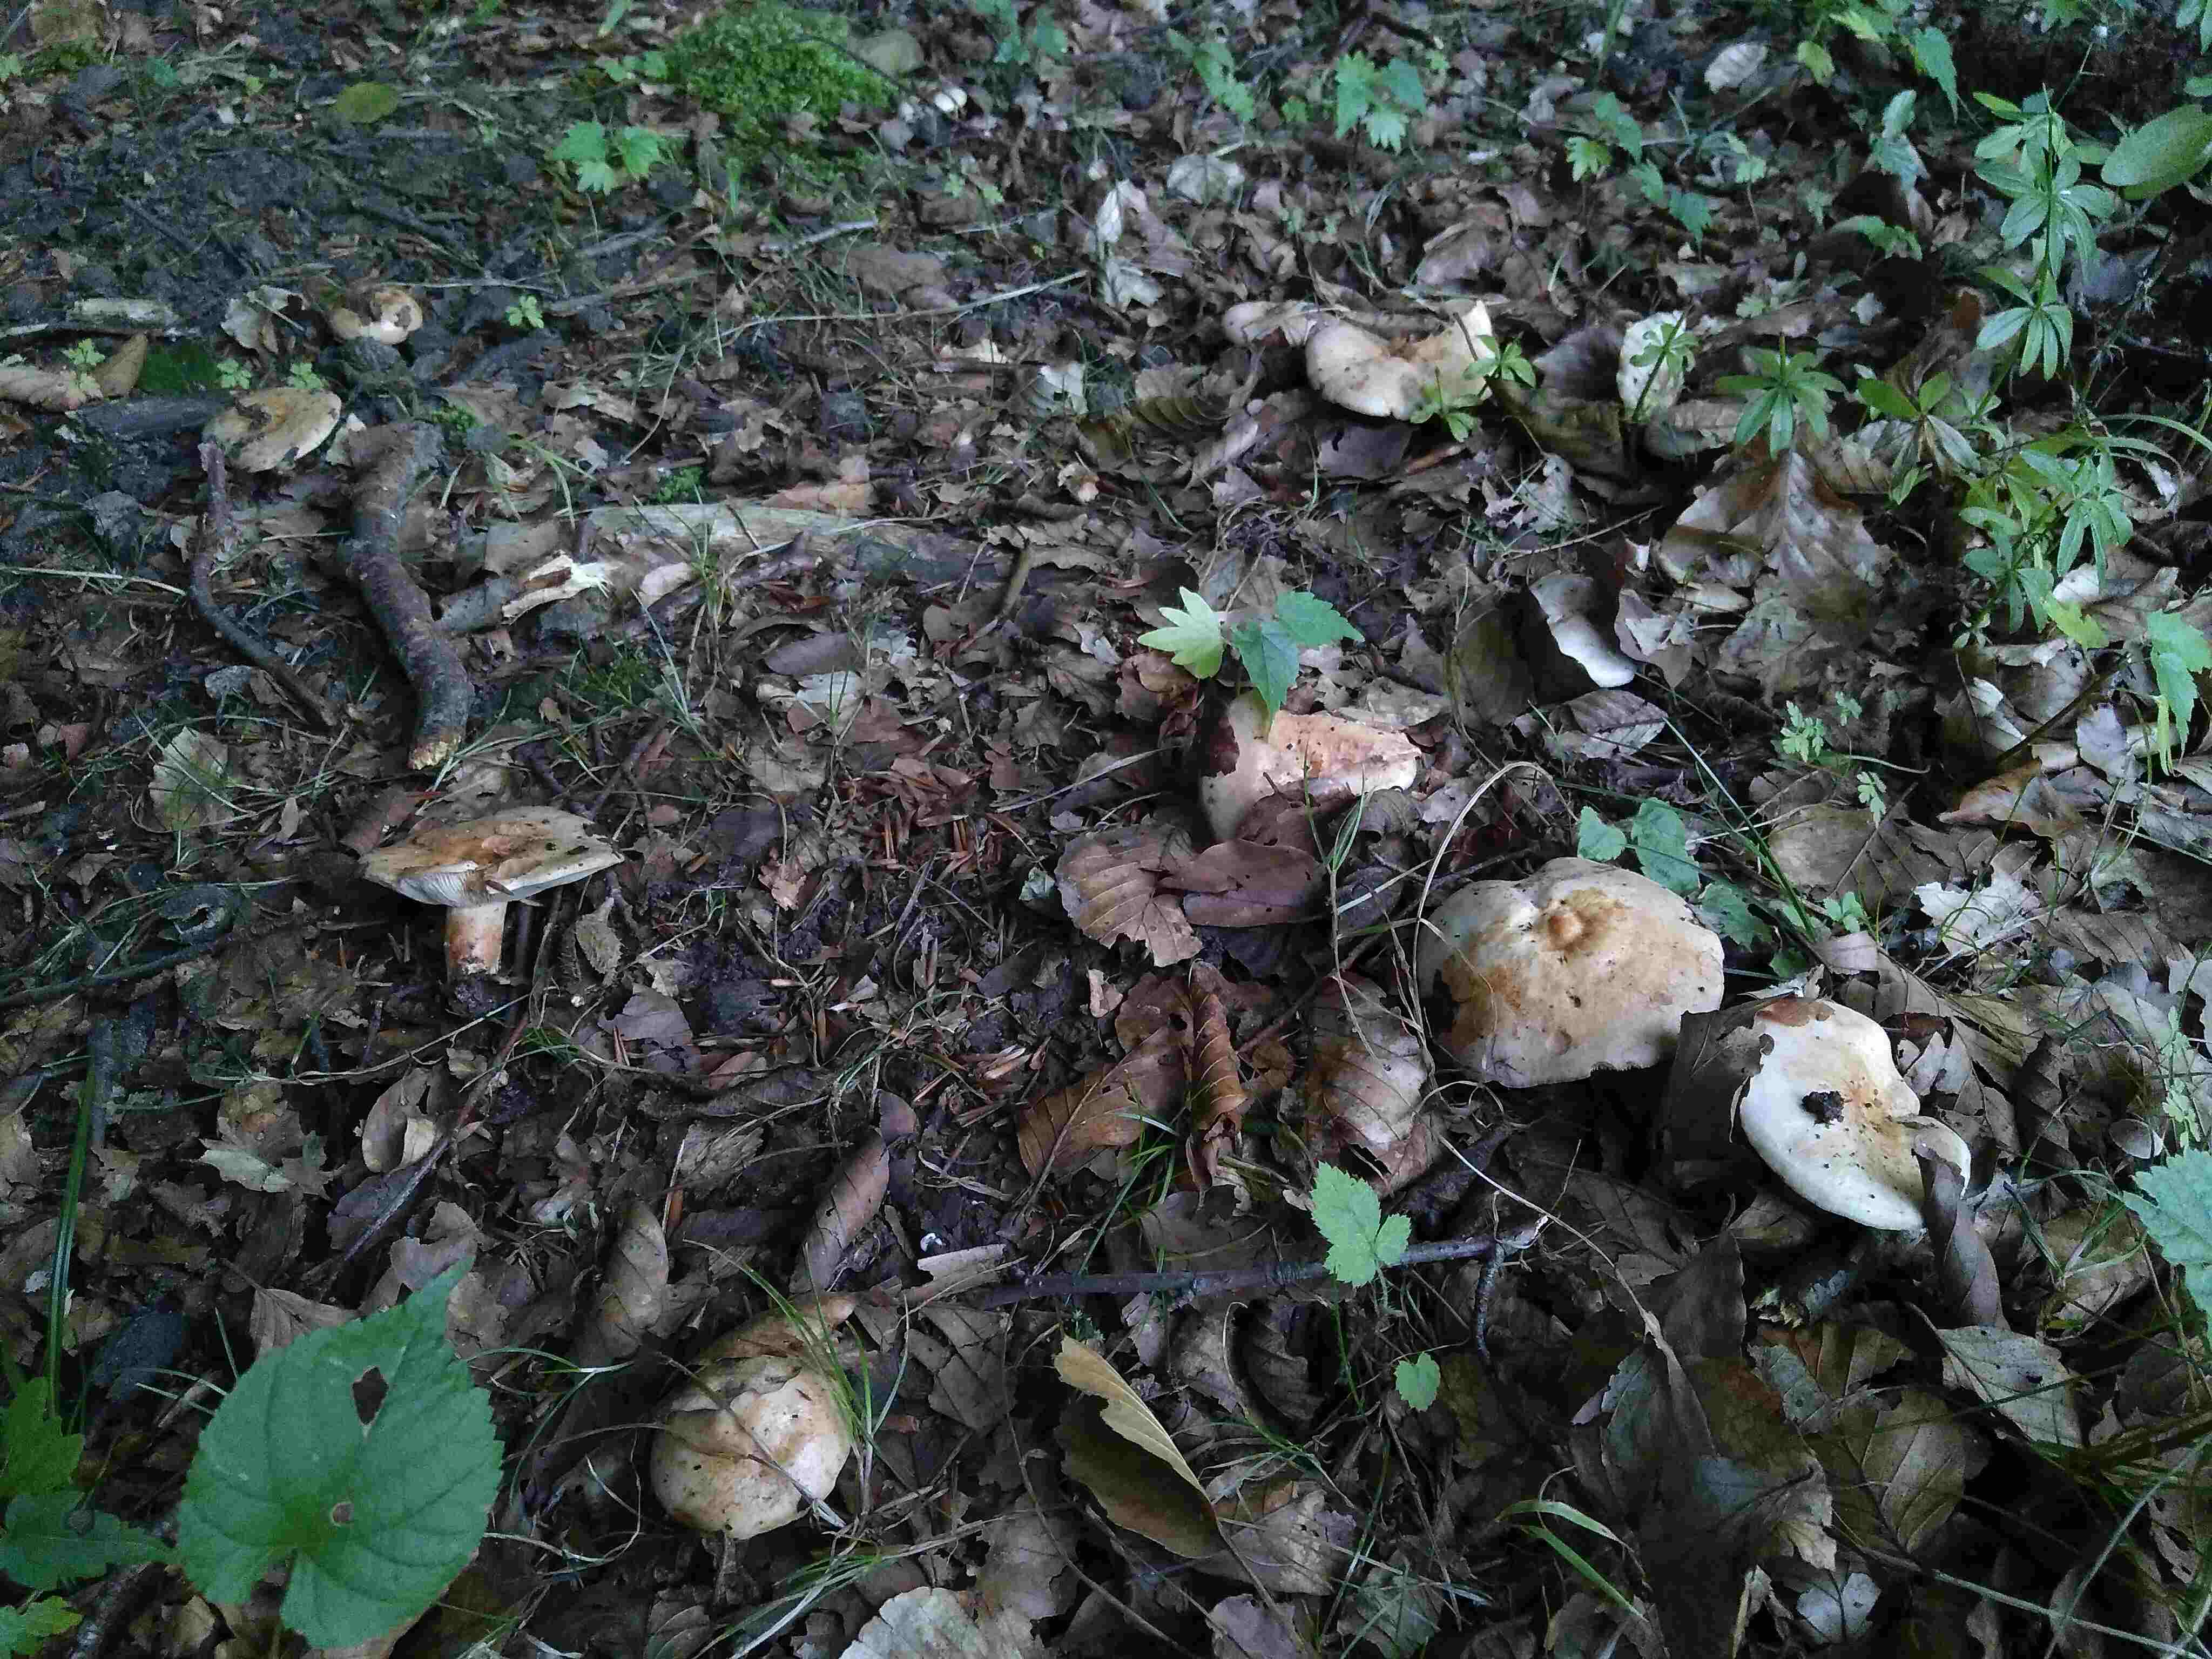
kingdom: Fungi
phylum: Basidiomycota
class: Agaricomycetes
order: Russulales
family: Russulaceae
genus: Lactarius
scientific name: Lactarius pallidus
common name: bleg mælkehat
